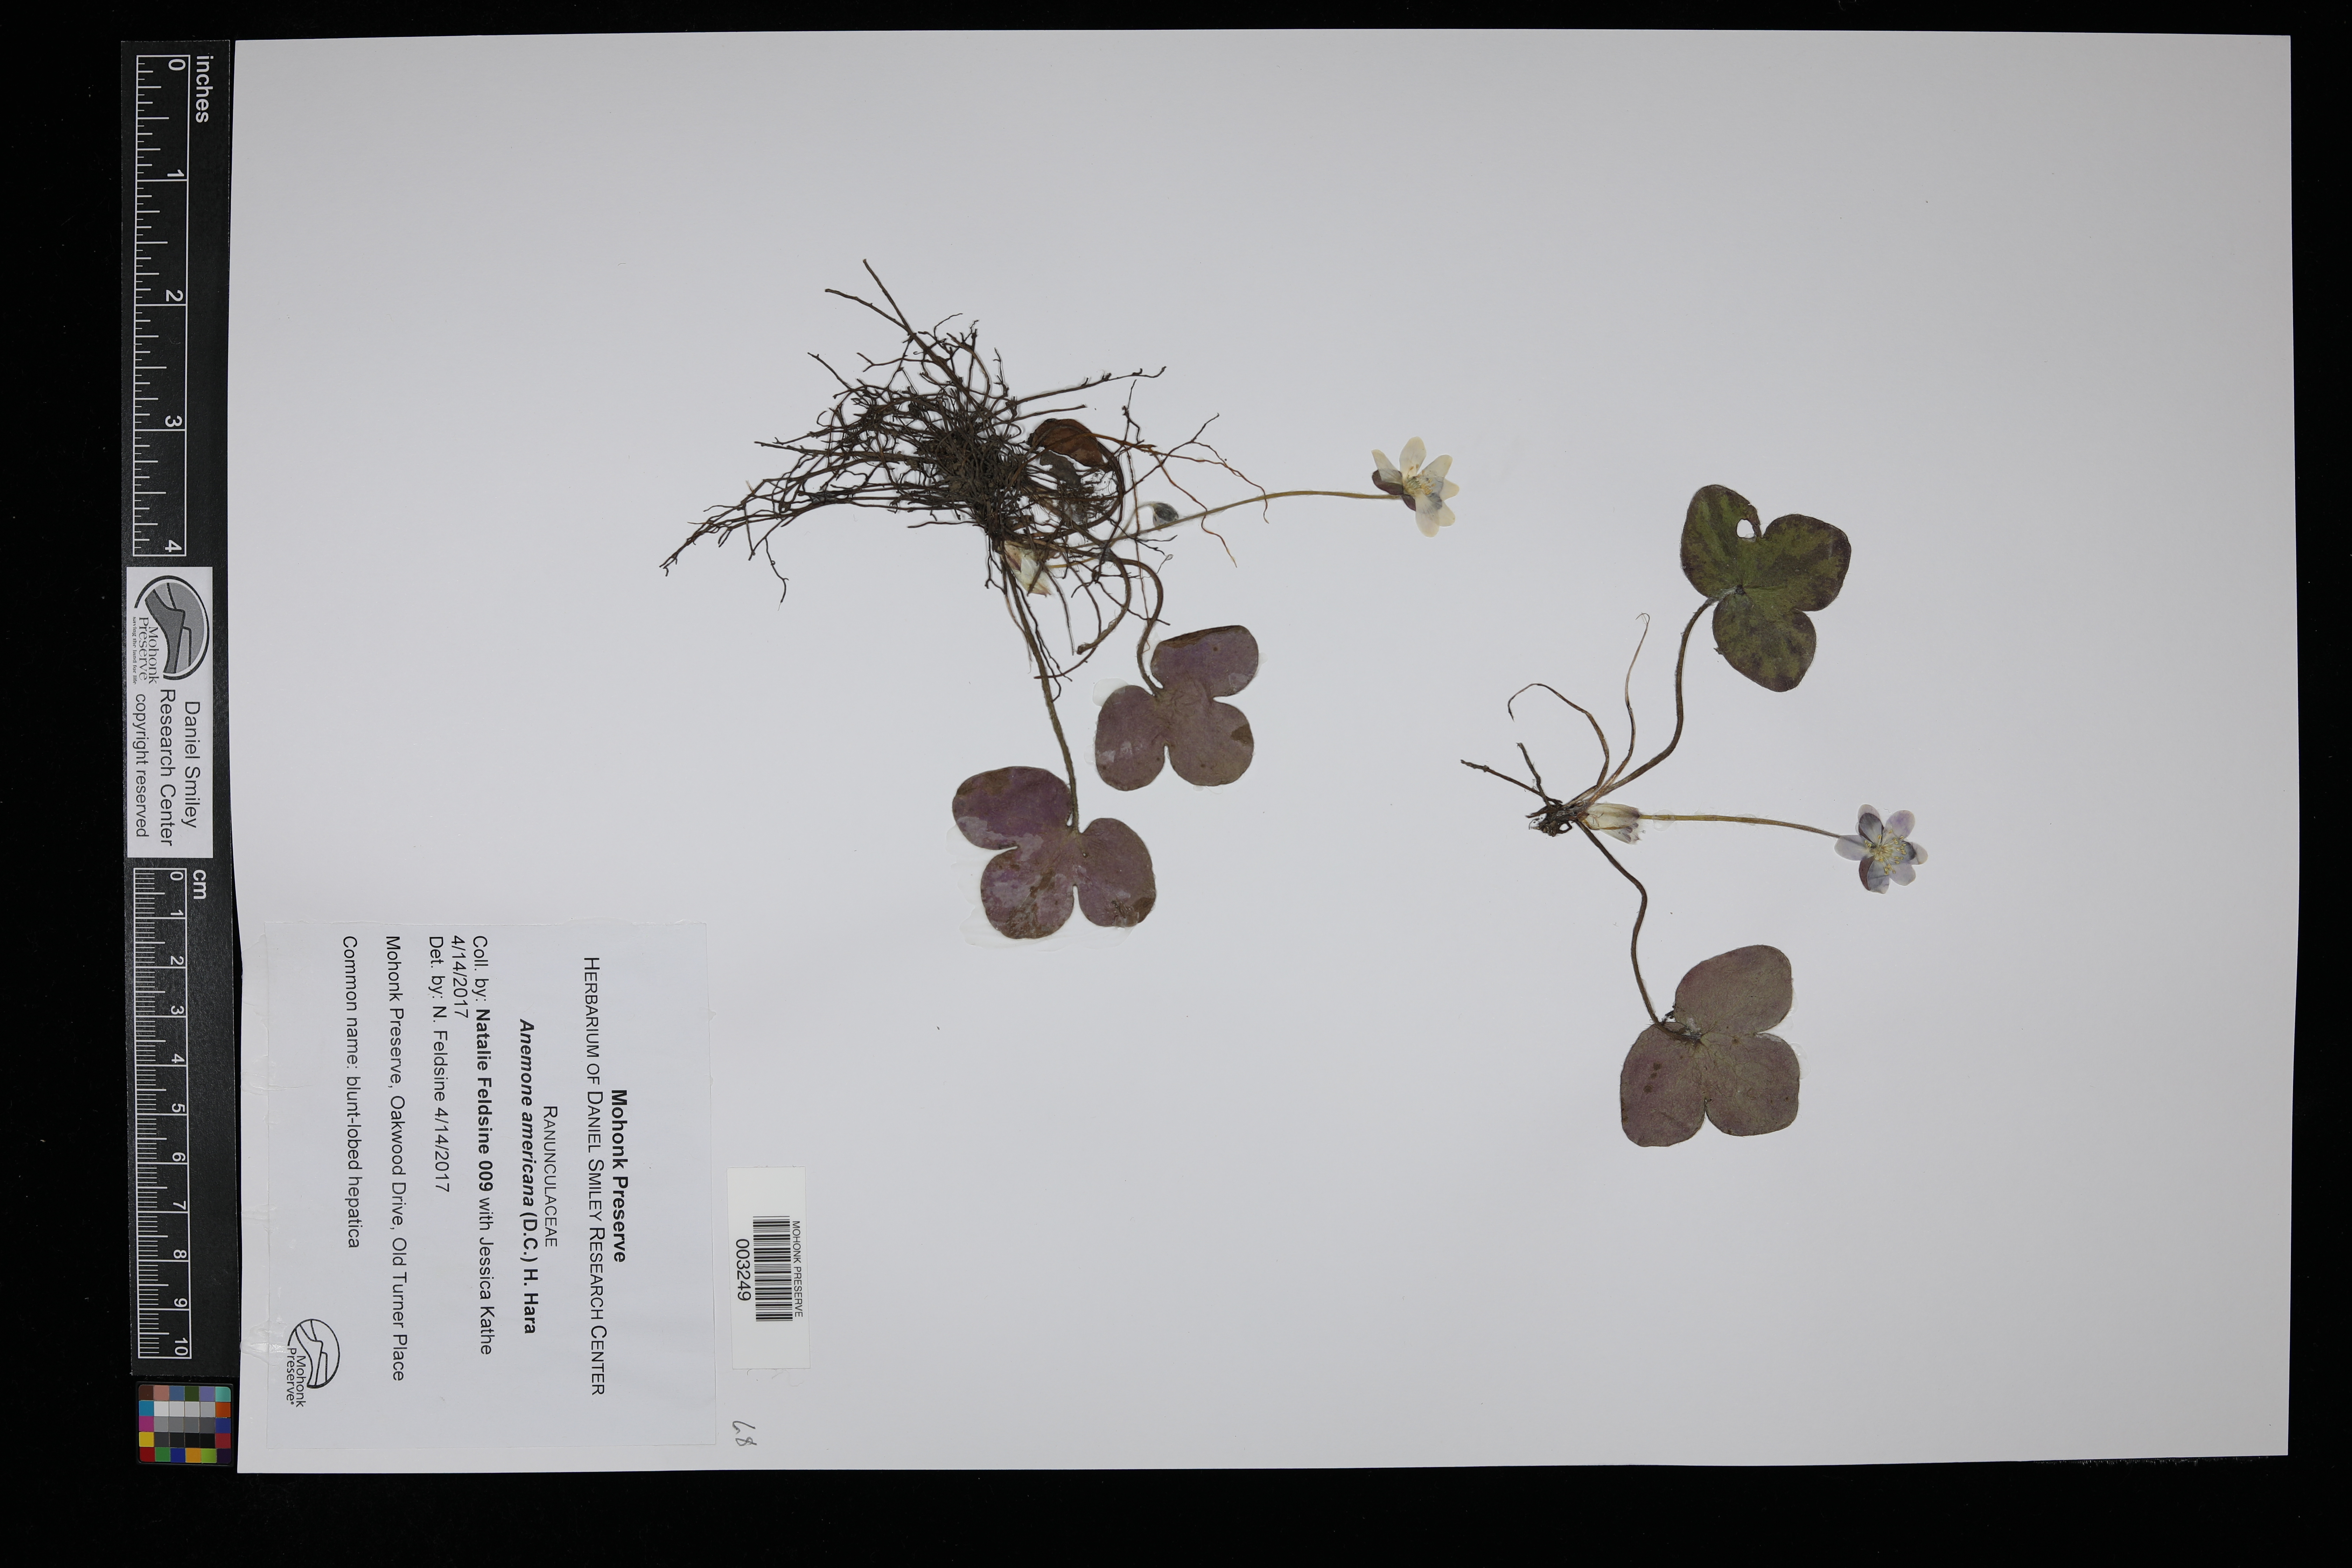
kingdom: Plantae
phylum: Tracheophyta
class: Magnoliopsida
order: Ranunculales
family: Ranunculaceae
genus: Hepatica
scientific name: Hepatica americana
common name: American hepatica
